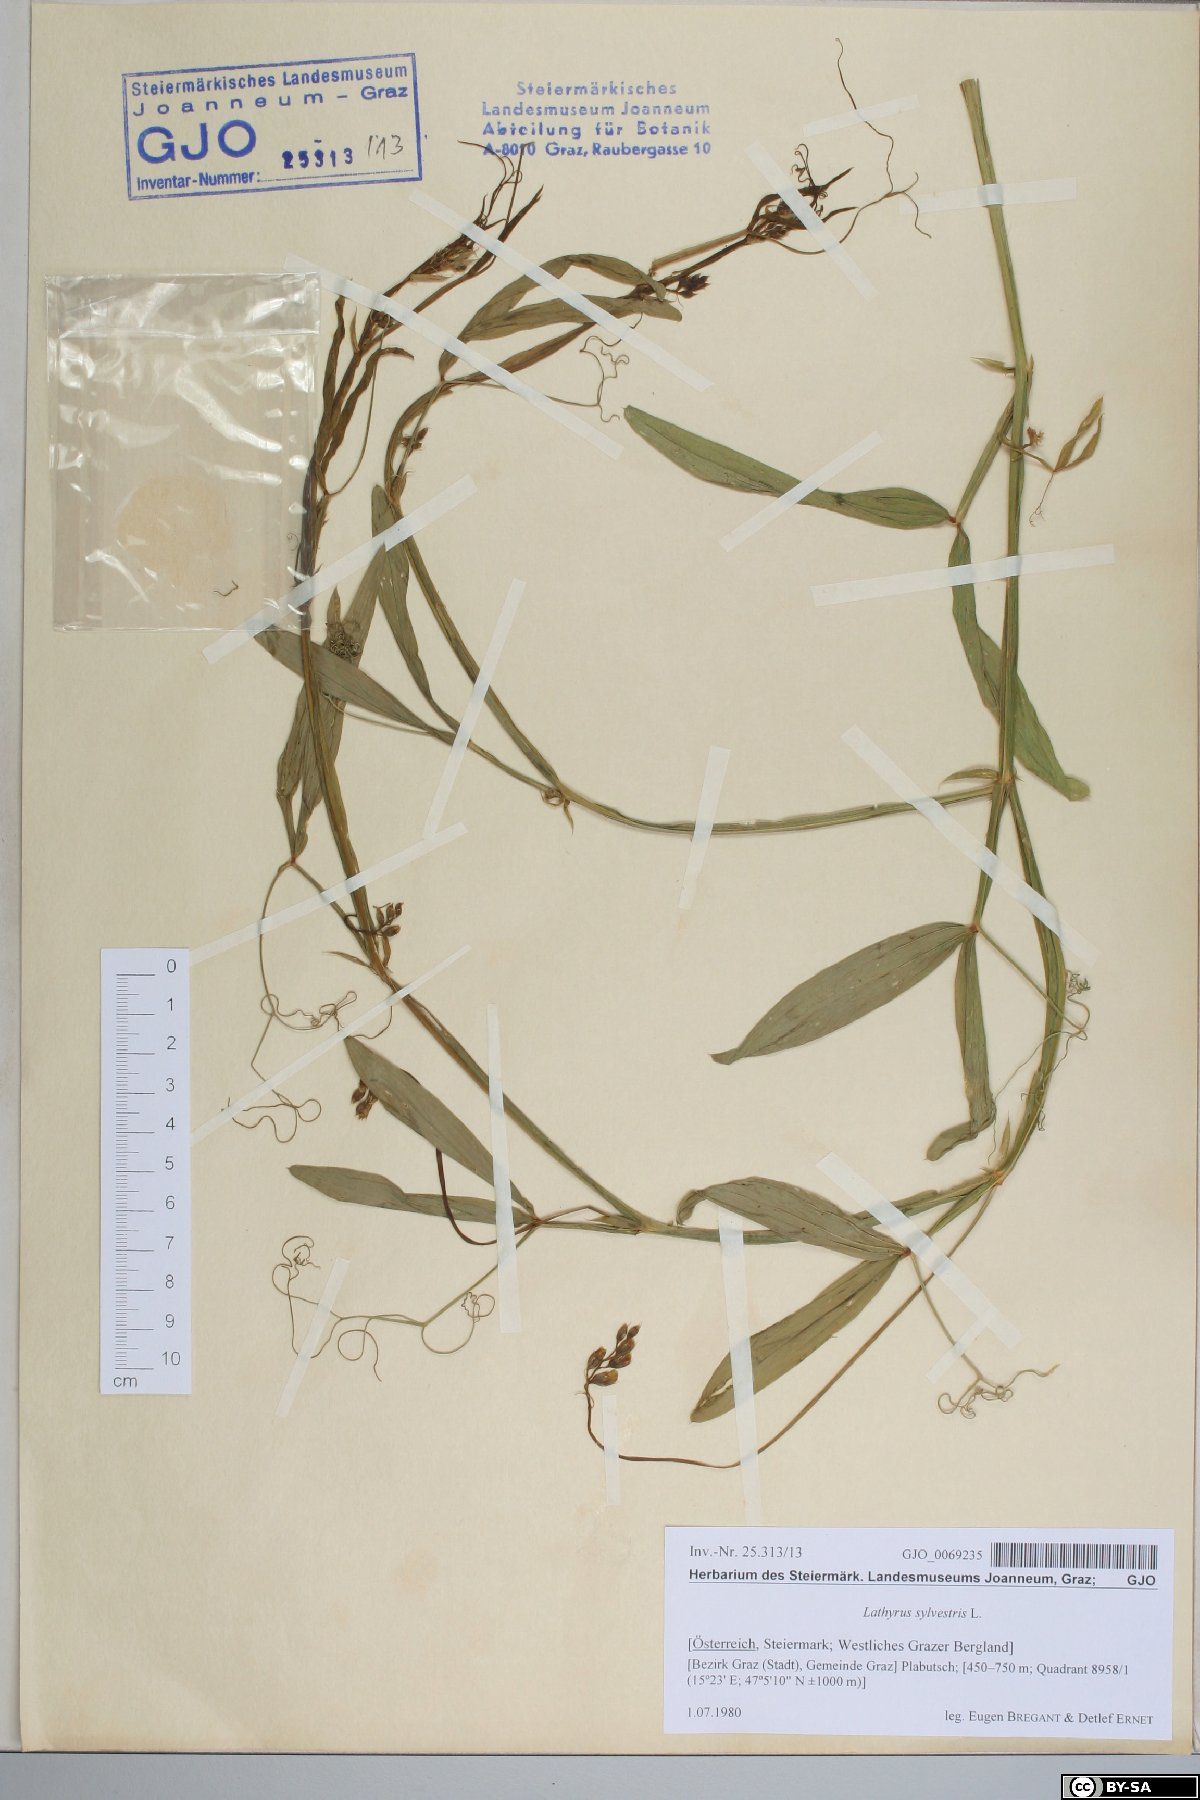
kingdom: Plantae
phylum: Tracheophyta
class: Magnoliopsida
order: Fabales
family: Fabaceae
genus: Lathyrus
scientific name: Lathyrus sylvestris
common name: Flat pea
